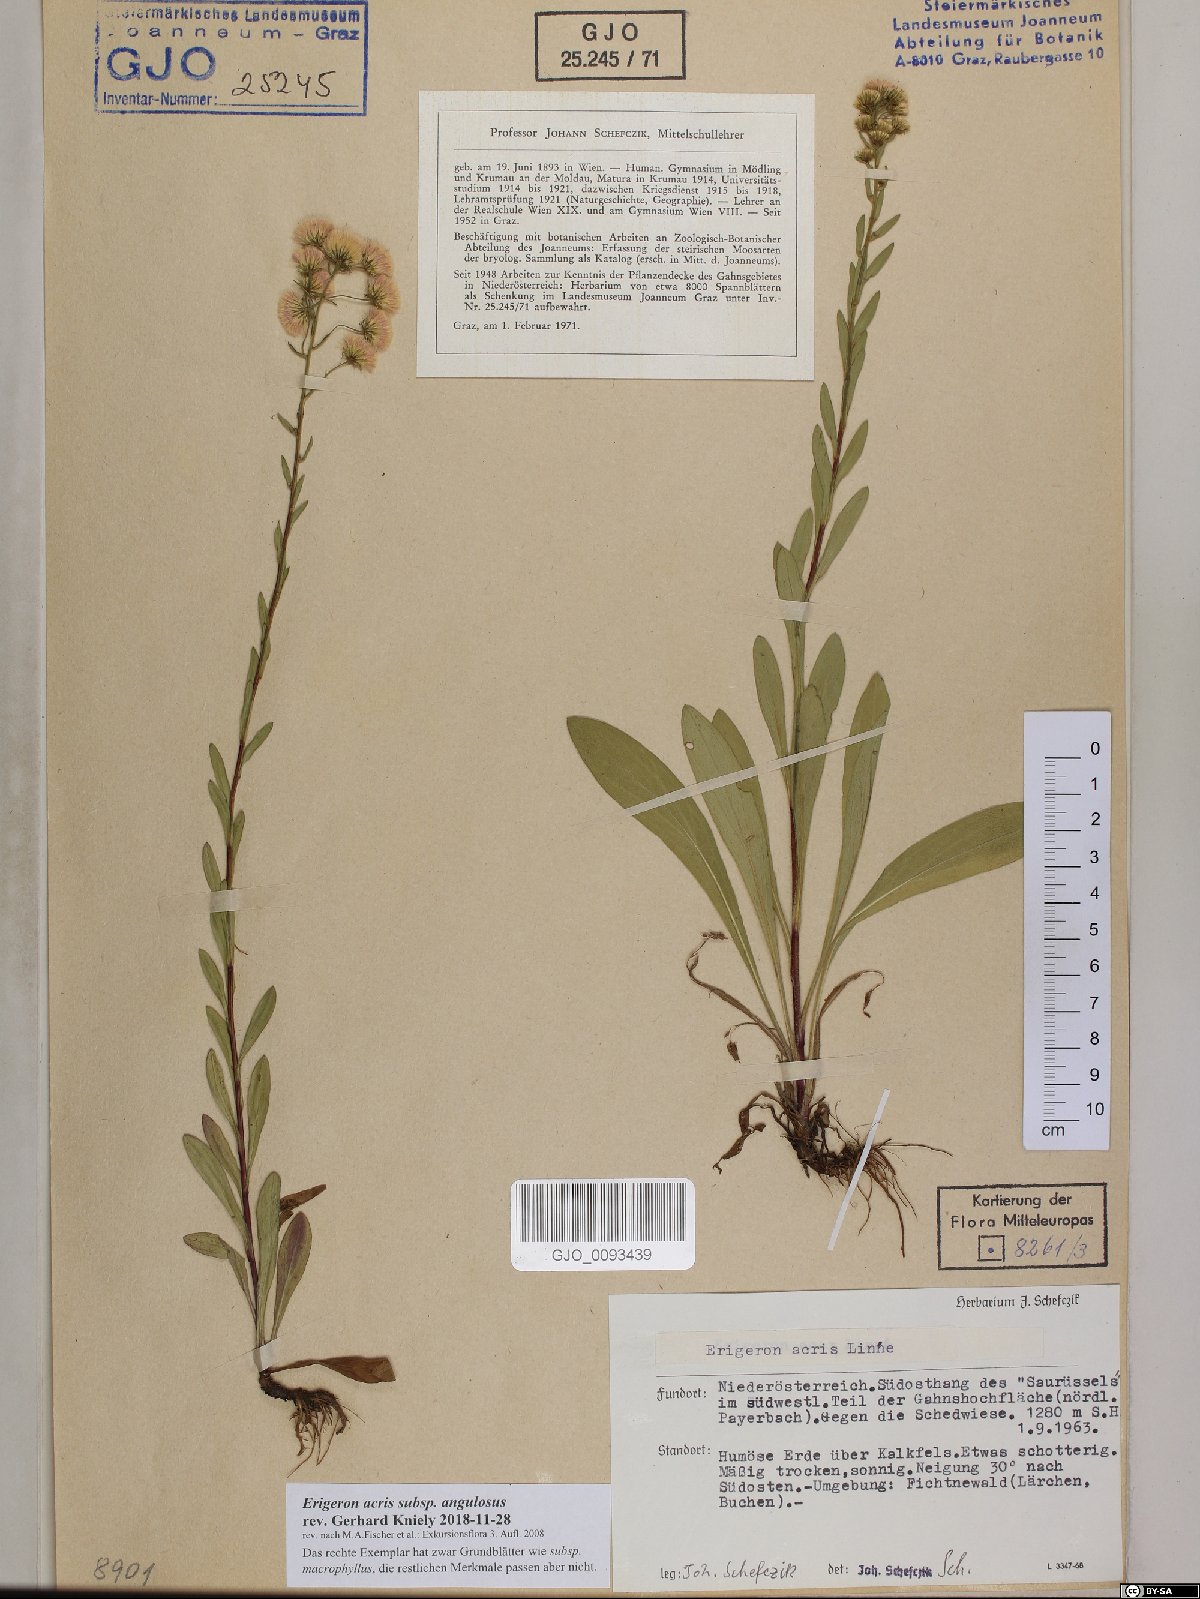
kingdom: Plantae
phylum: Tracheophyta
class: Magnoliopsida
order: Asterales
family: Asteraceae
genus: Erigeron
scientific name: Erigeron angulosus
